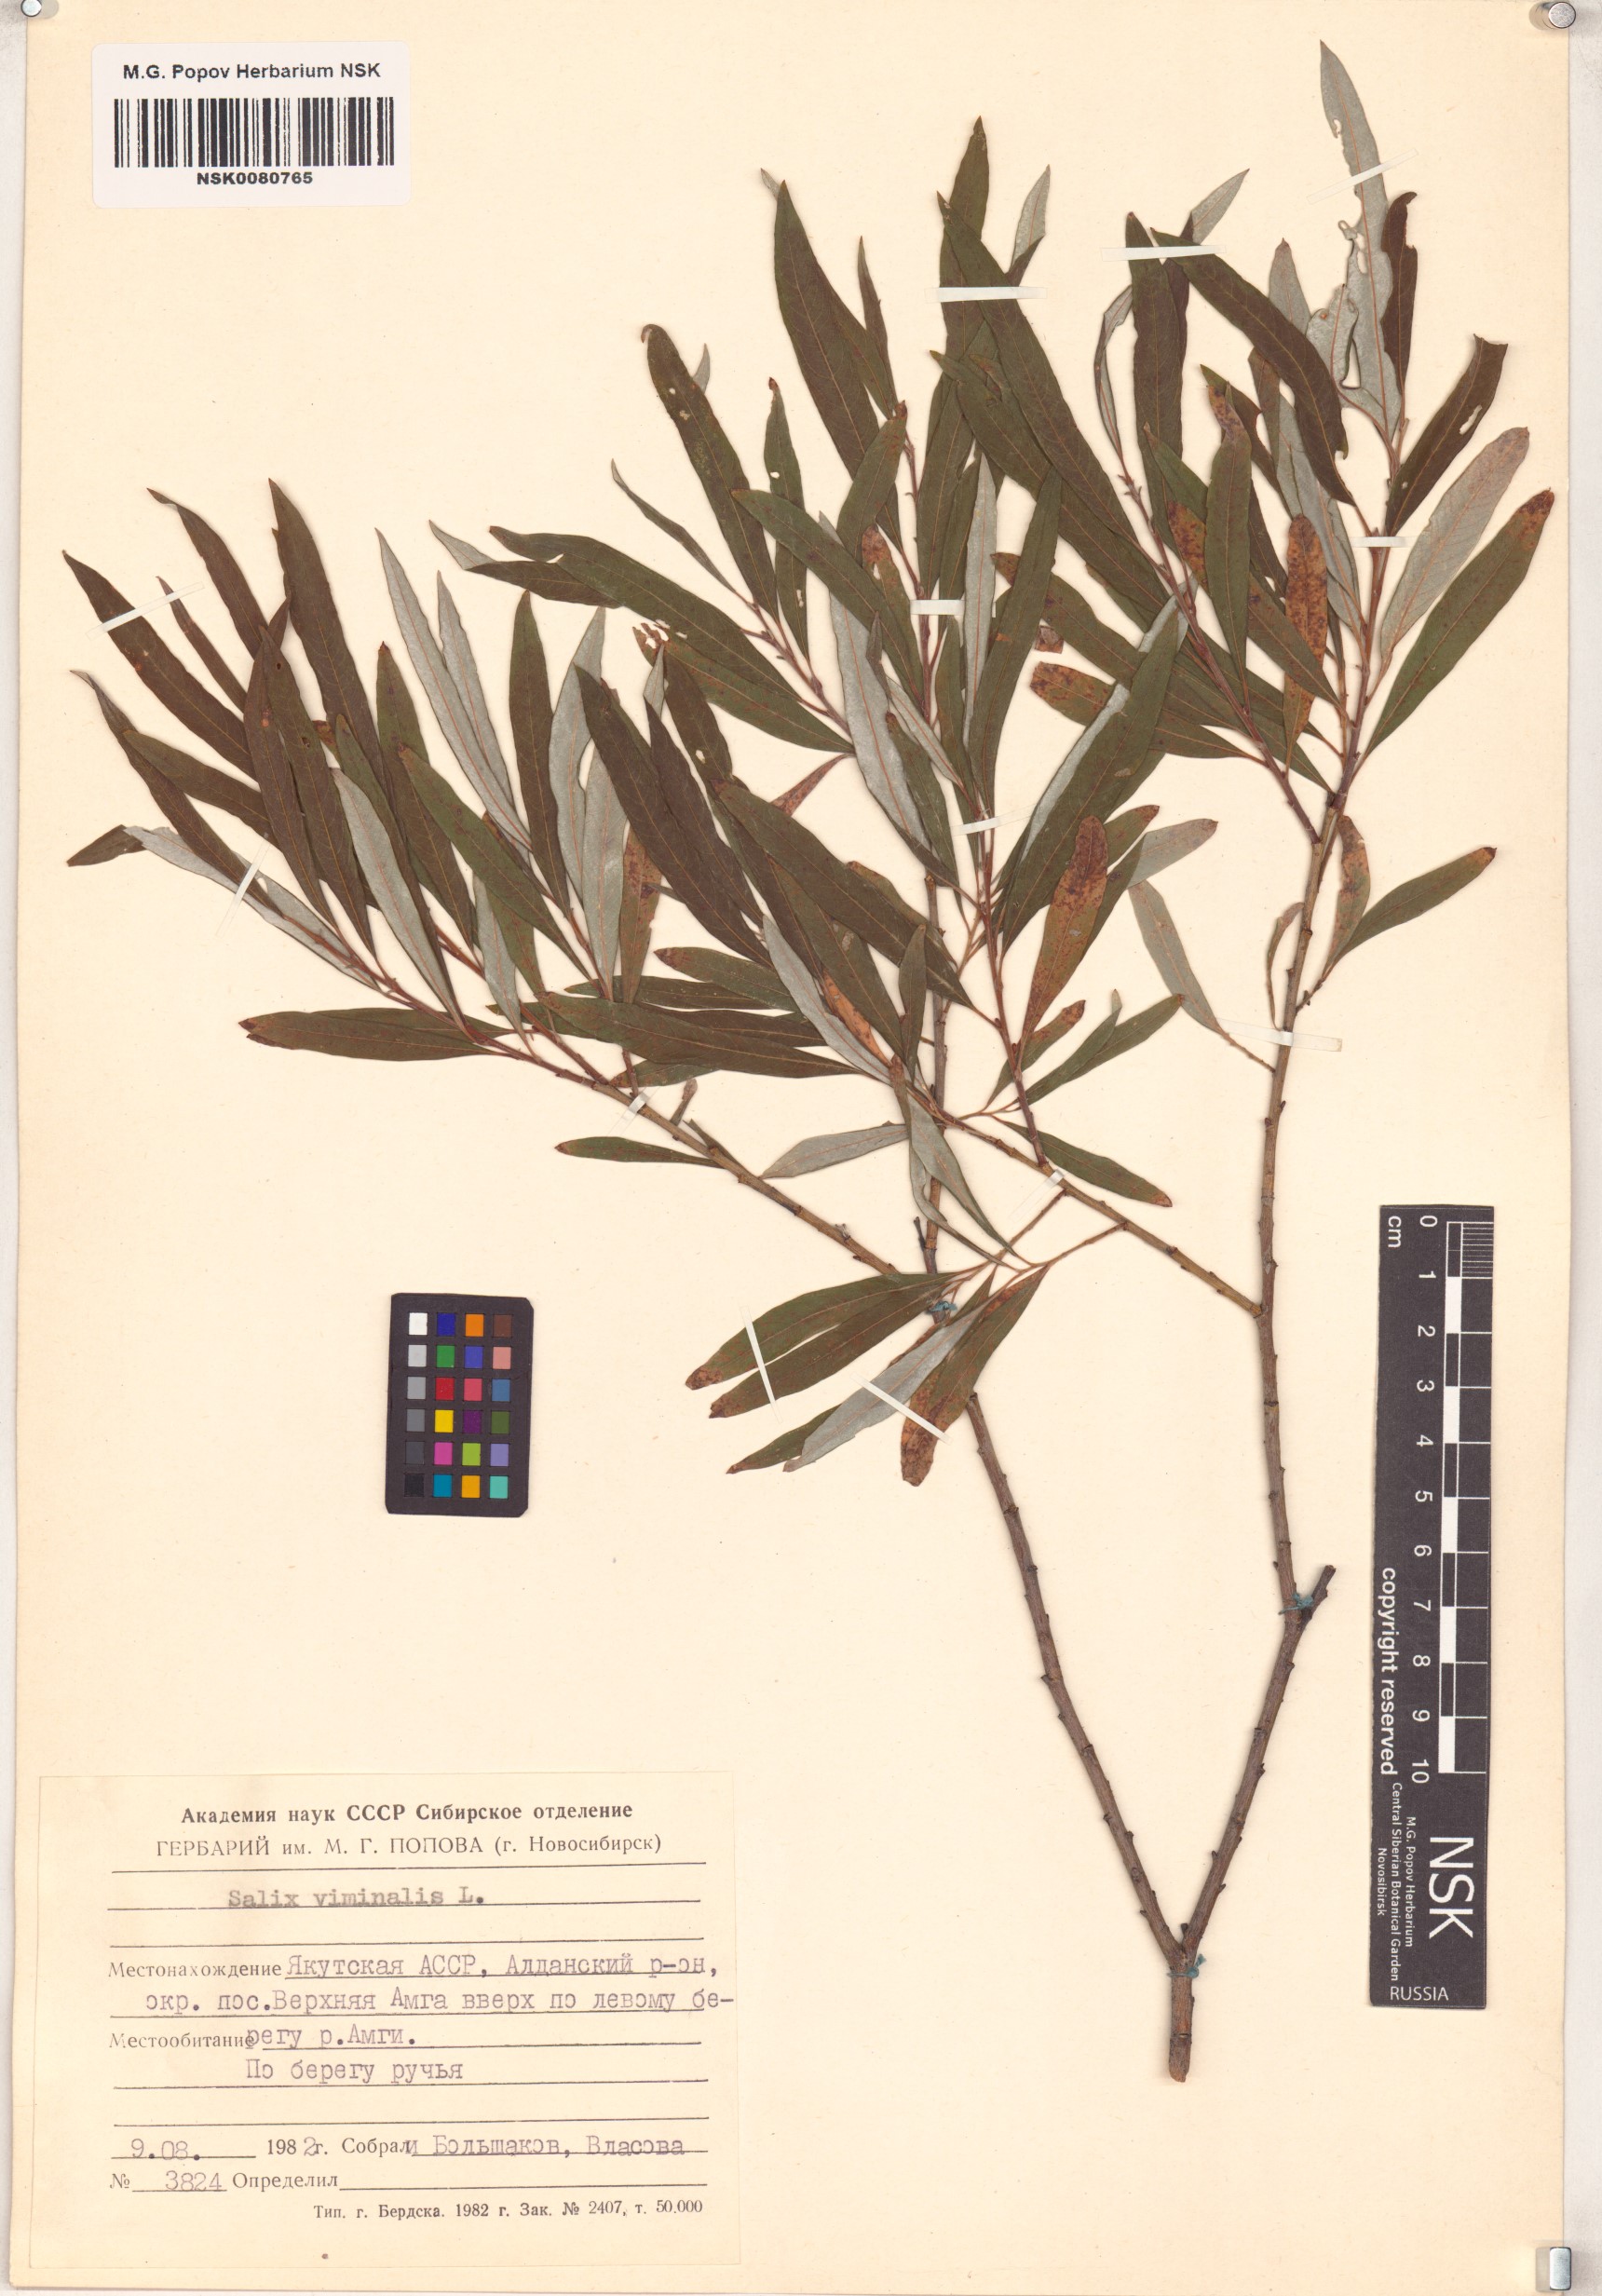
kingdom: Plantae
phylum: Tracheophyta
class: Magnoliopsida
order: Malpighiales
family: Salicaceae
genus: Salix
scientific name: Salix viminalis
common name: Osier
